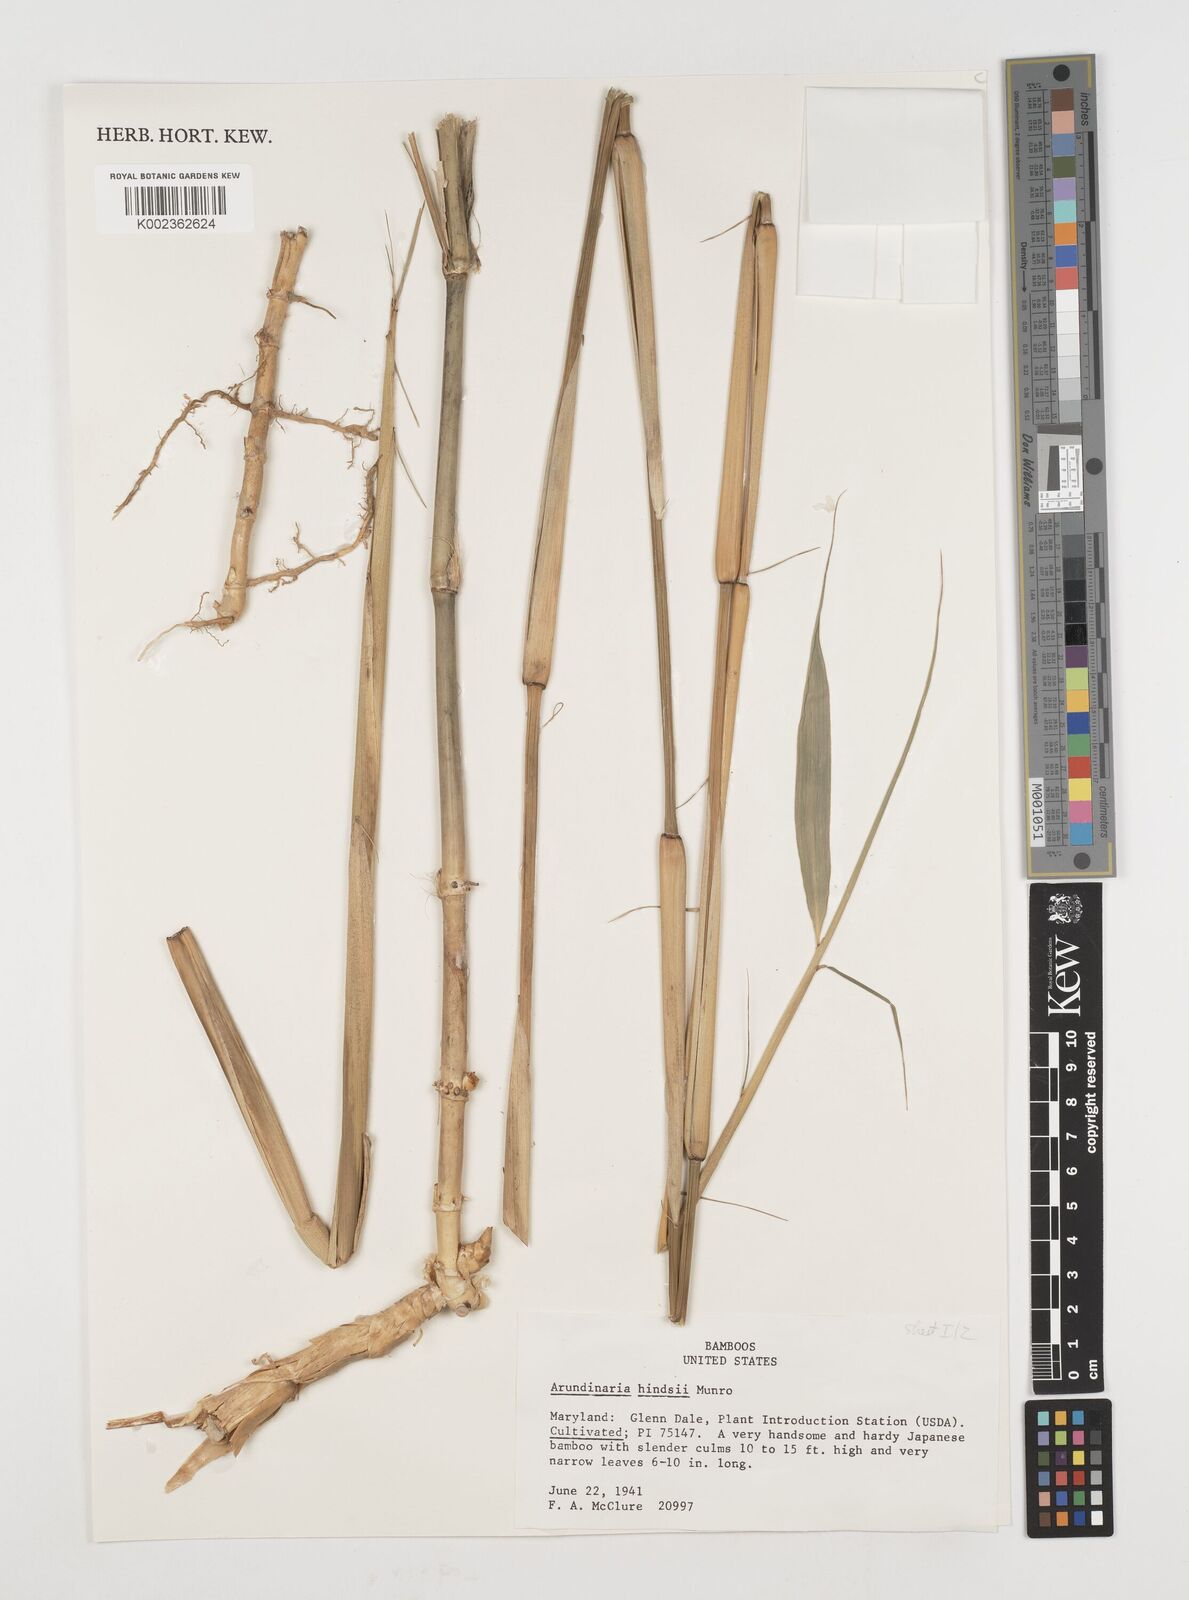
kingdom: Plantae
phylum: Tracheophyta
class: Liliopsida
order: Poales
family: Poaceae
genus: Pseudosasa
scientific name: Pseudosasa hindsii
